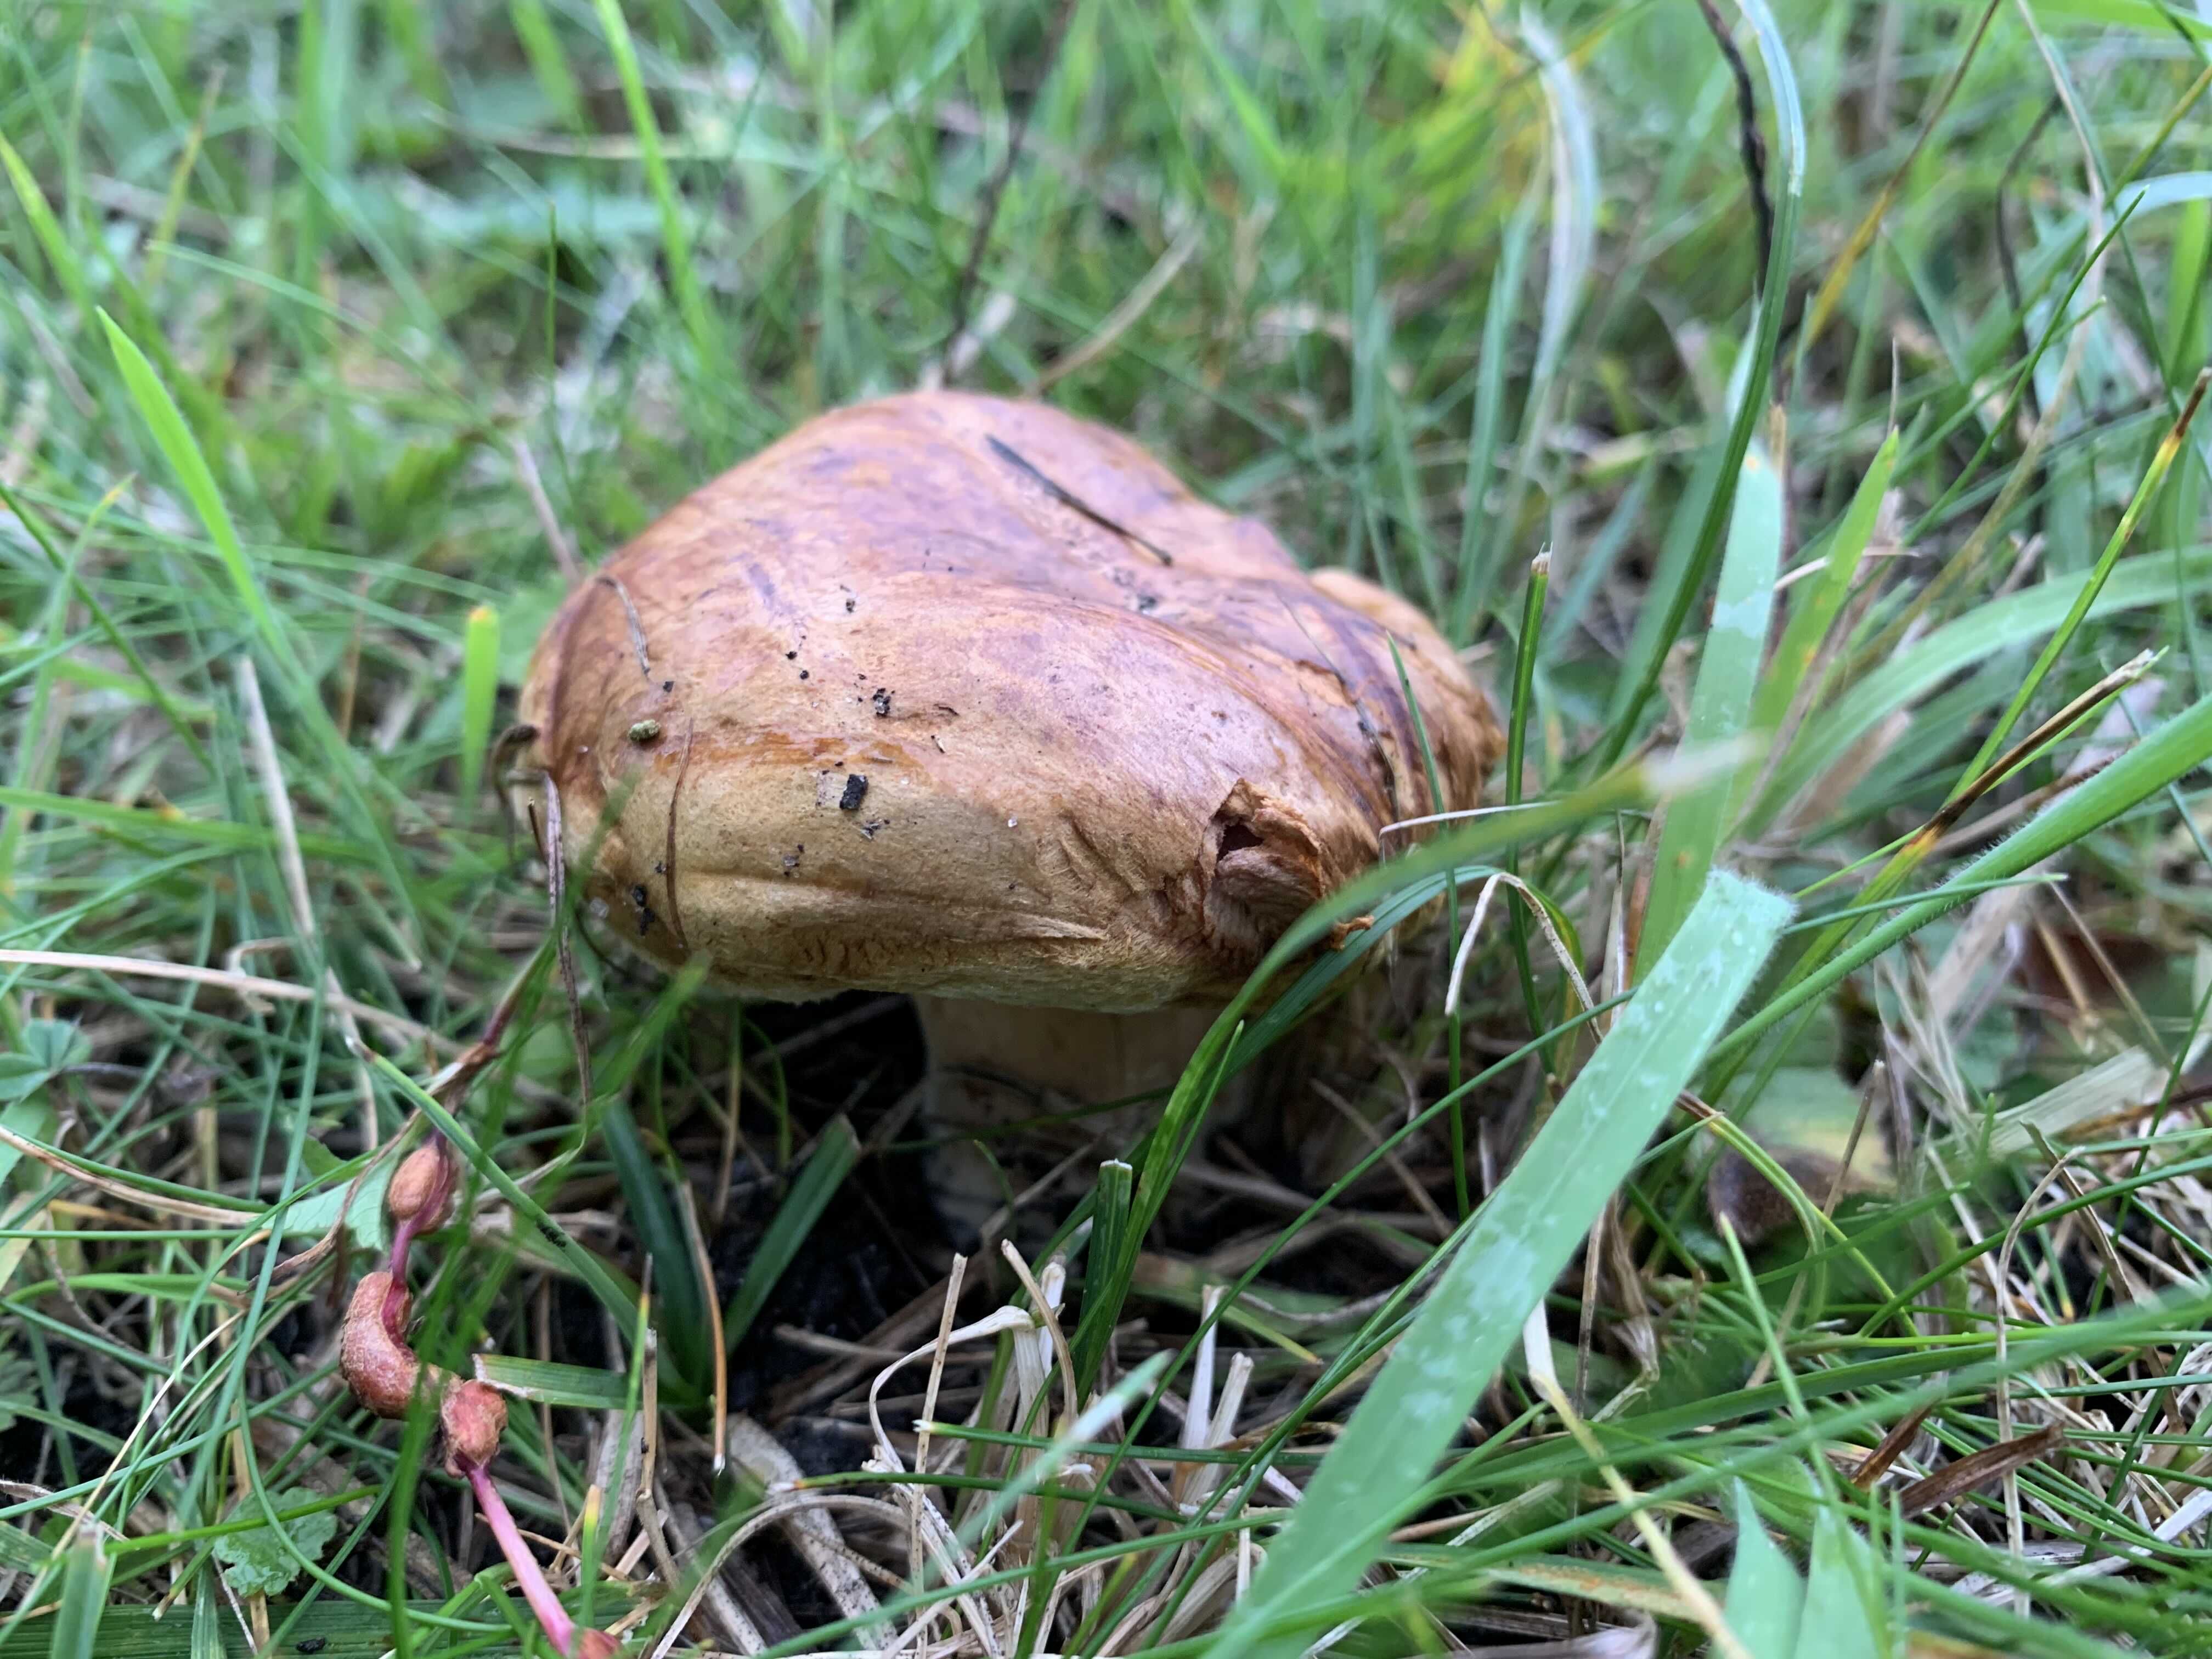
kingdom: Fungi
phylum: Basidiomycota
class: Agaricomycetes
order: Boletales
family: Paxillaceae
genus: Paxillus
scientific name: Paxillus
